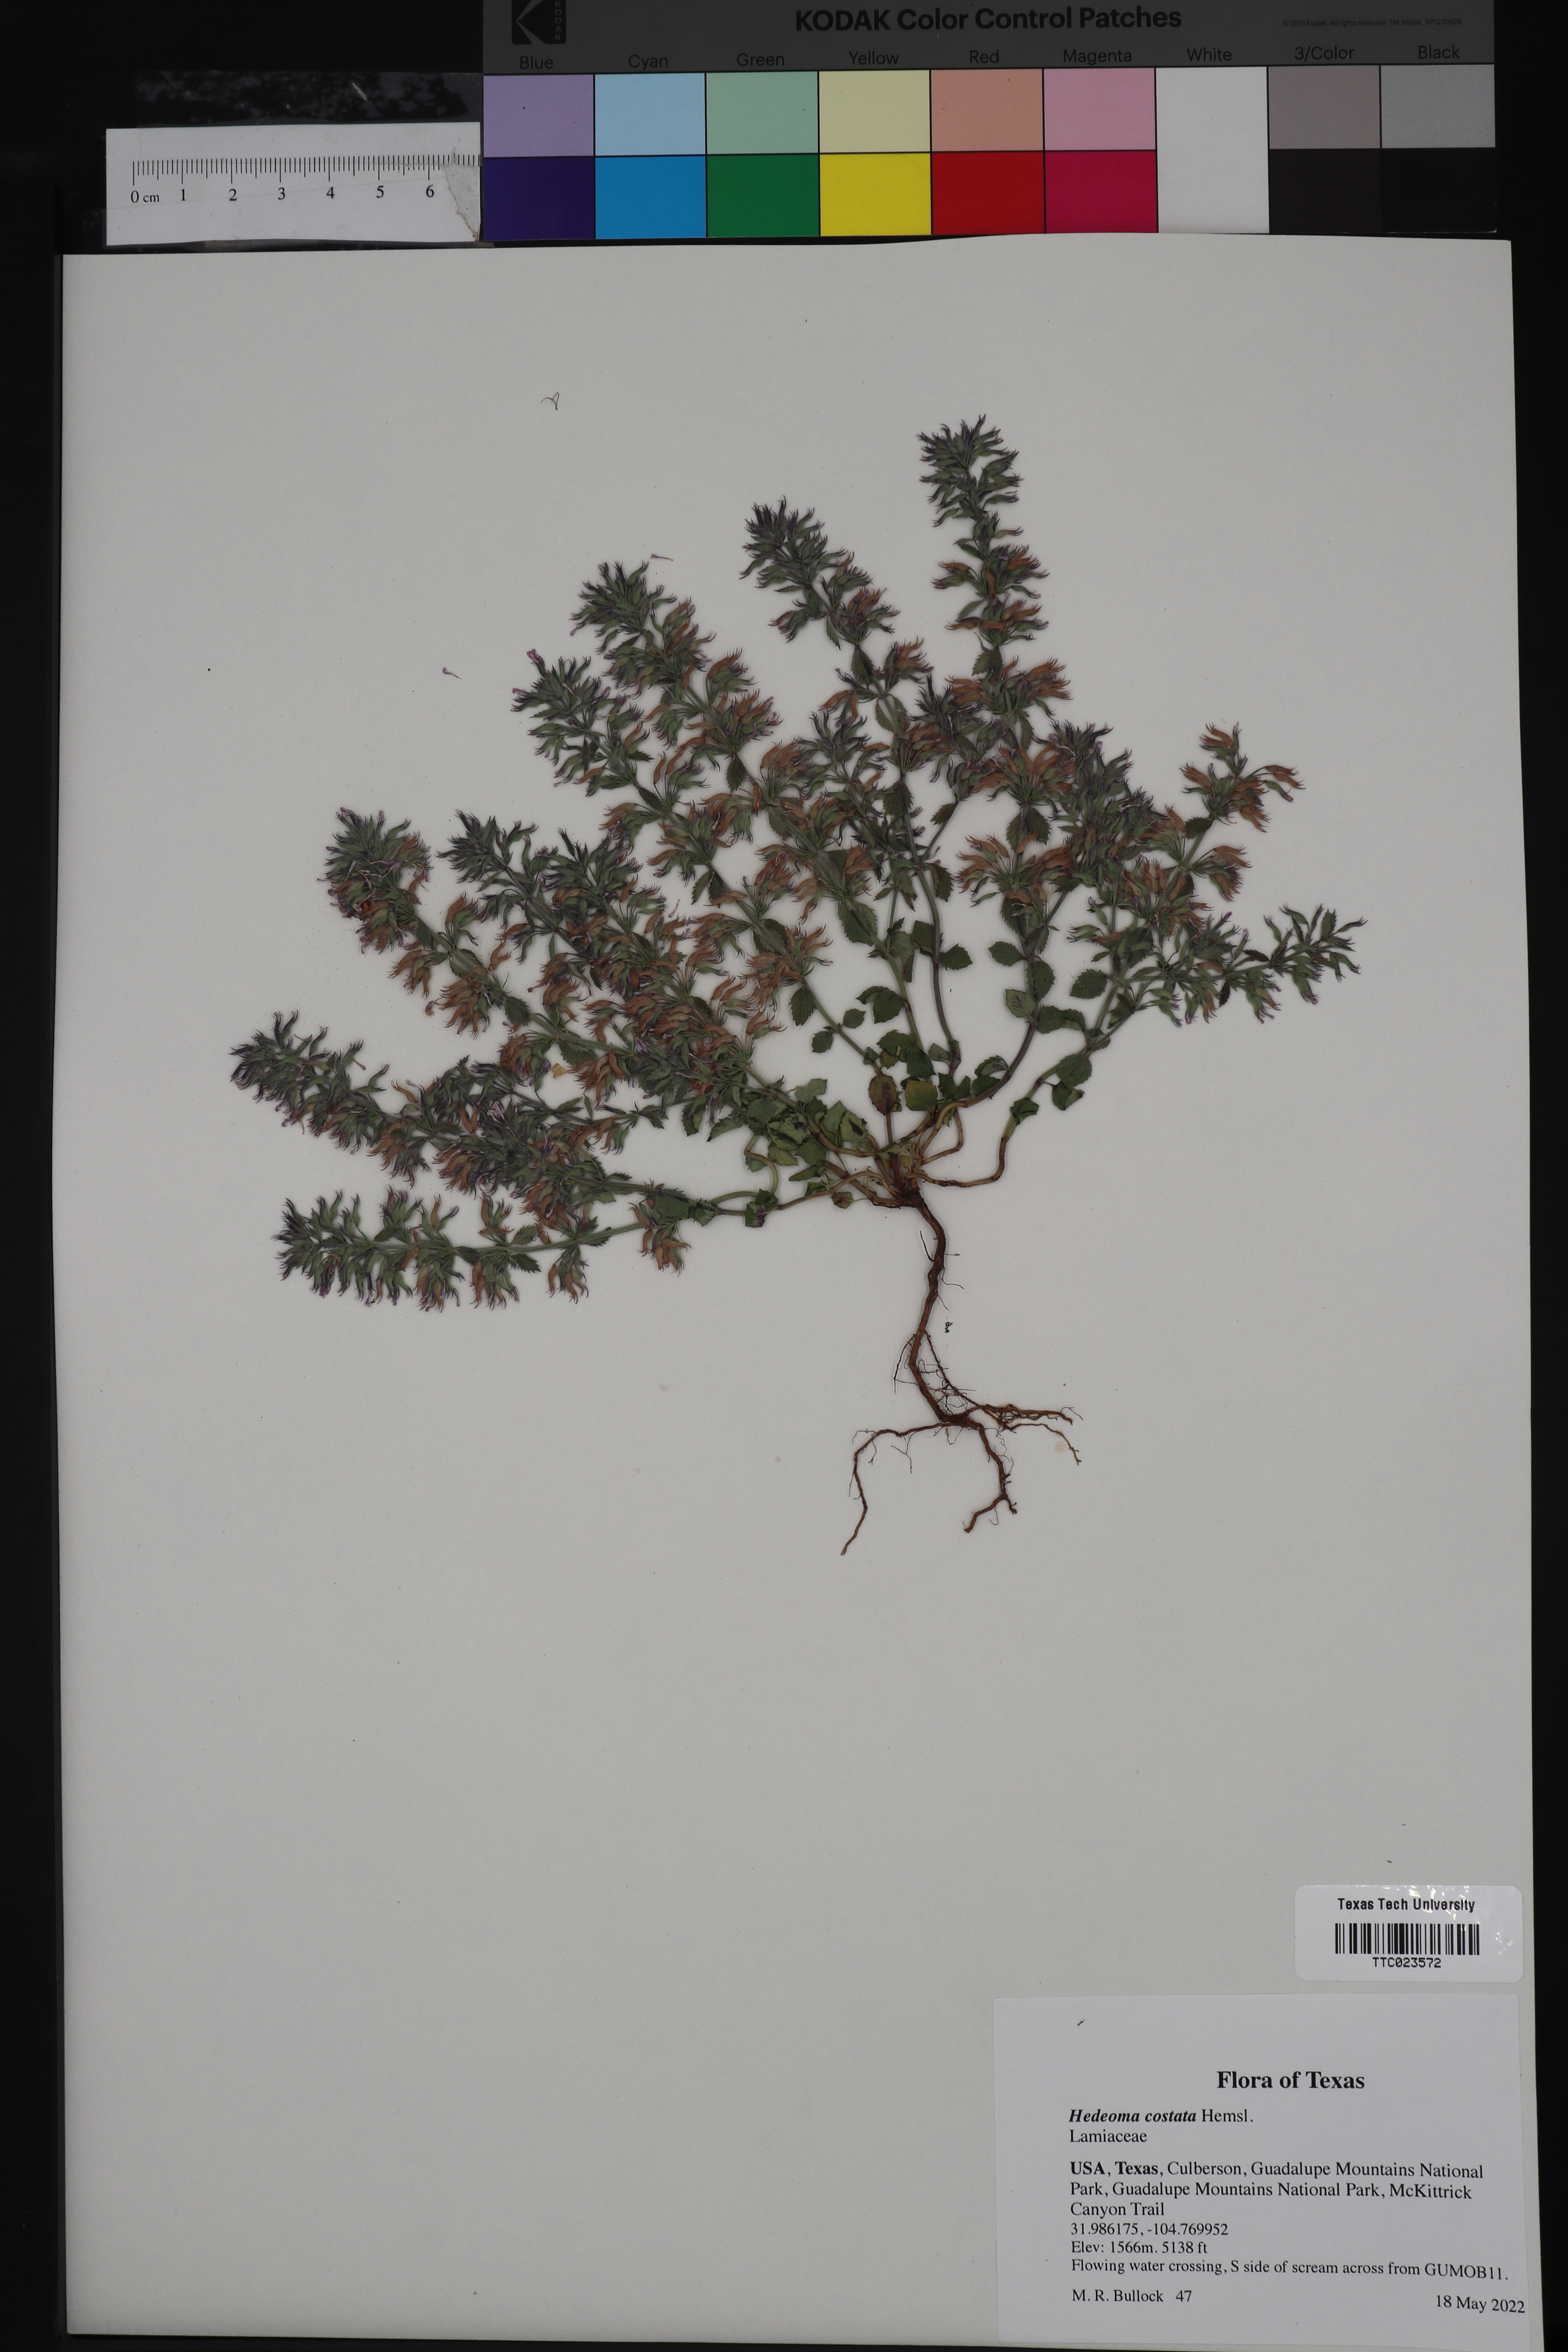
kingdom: Plantae
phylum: Tracheophyta
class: Magnoliopsida
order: Lamiales
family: Lamiaceae
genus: Hedeoma
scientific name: Hedeoma costata
